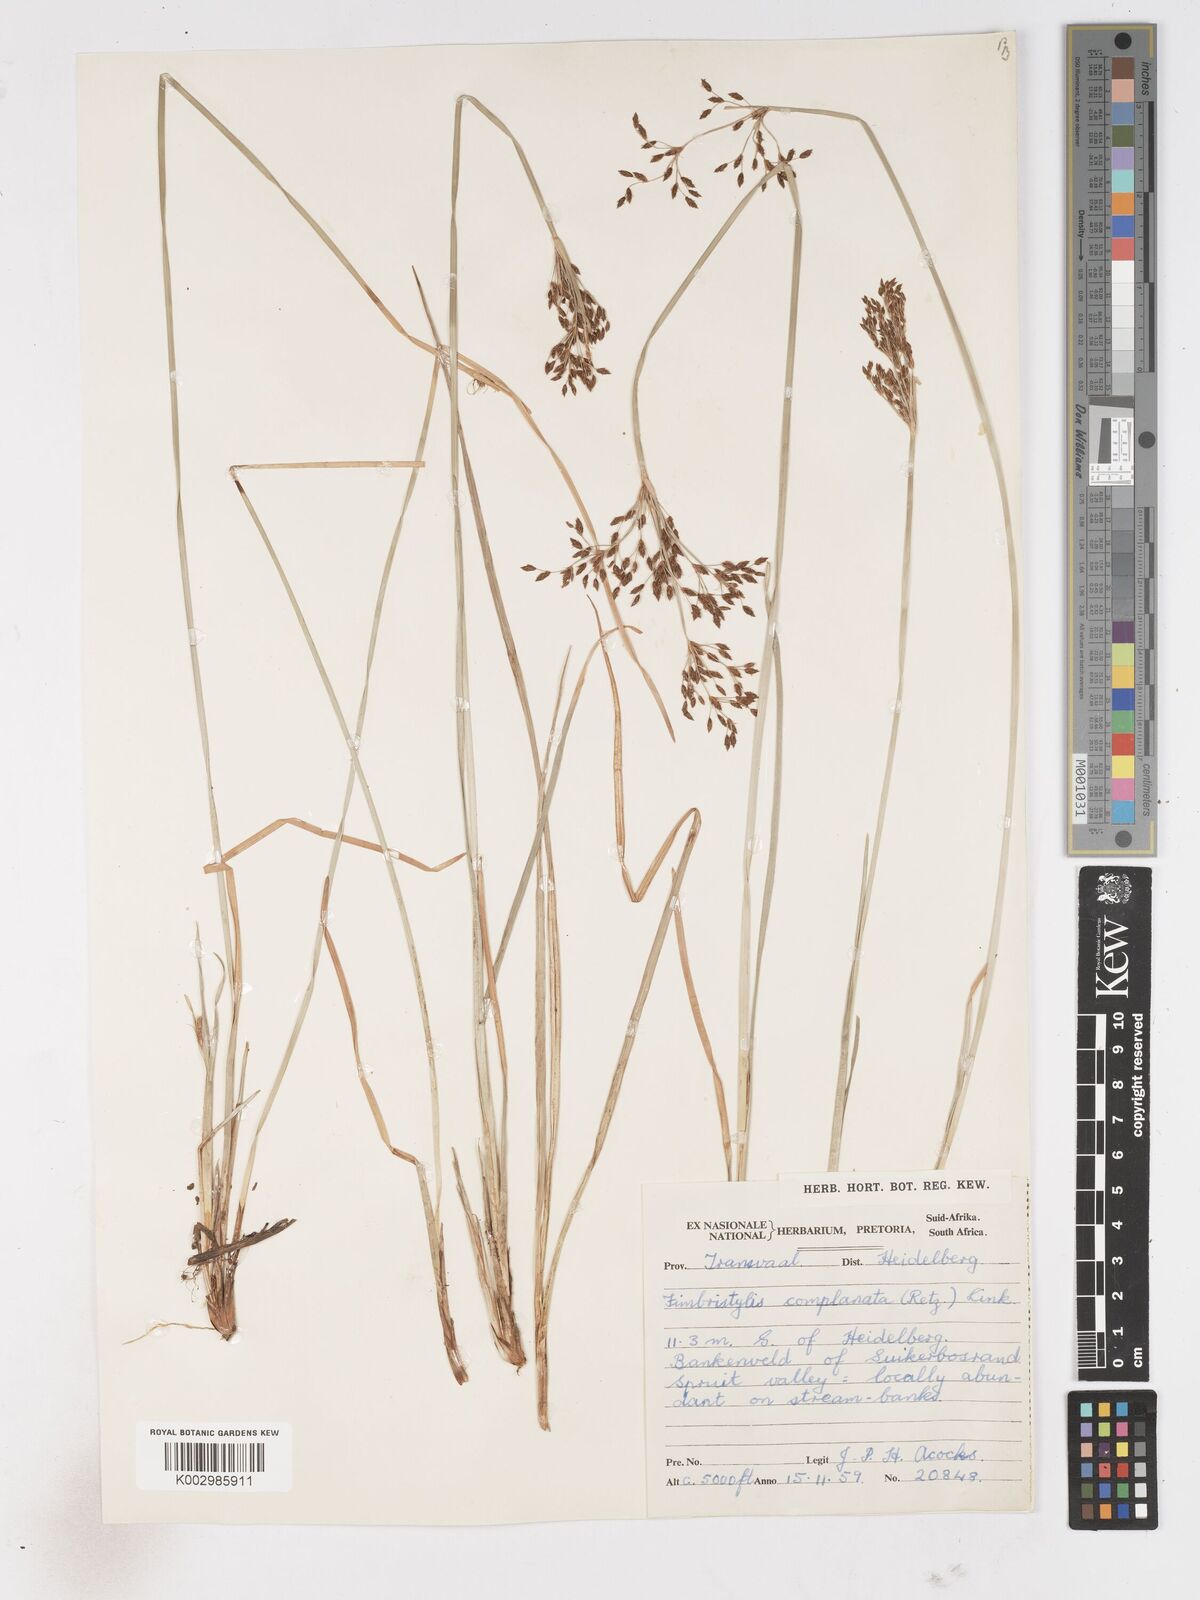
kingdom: Plantae
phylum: Tracheophyta
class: Liliopsida
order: Poales
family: Cyperaceae
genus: Fimbristylis
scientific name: Fimbristylis complanata
